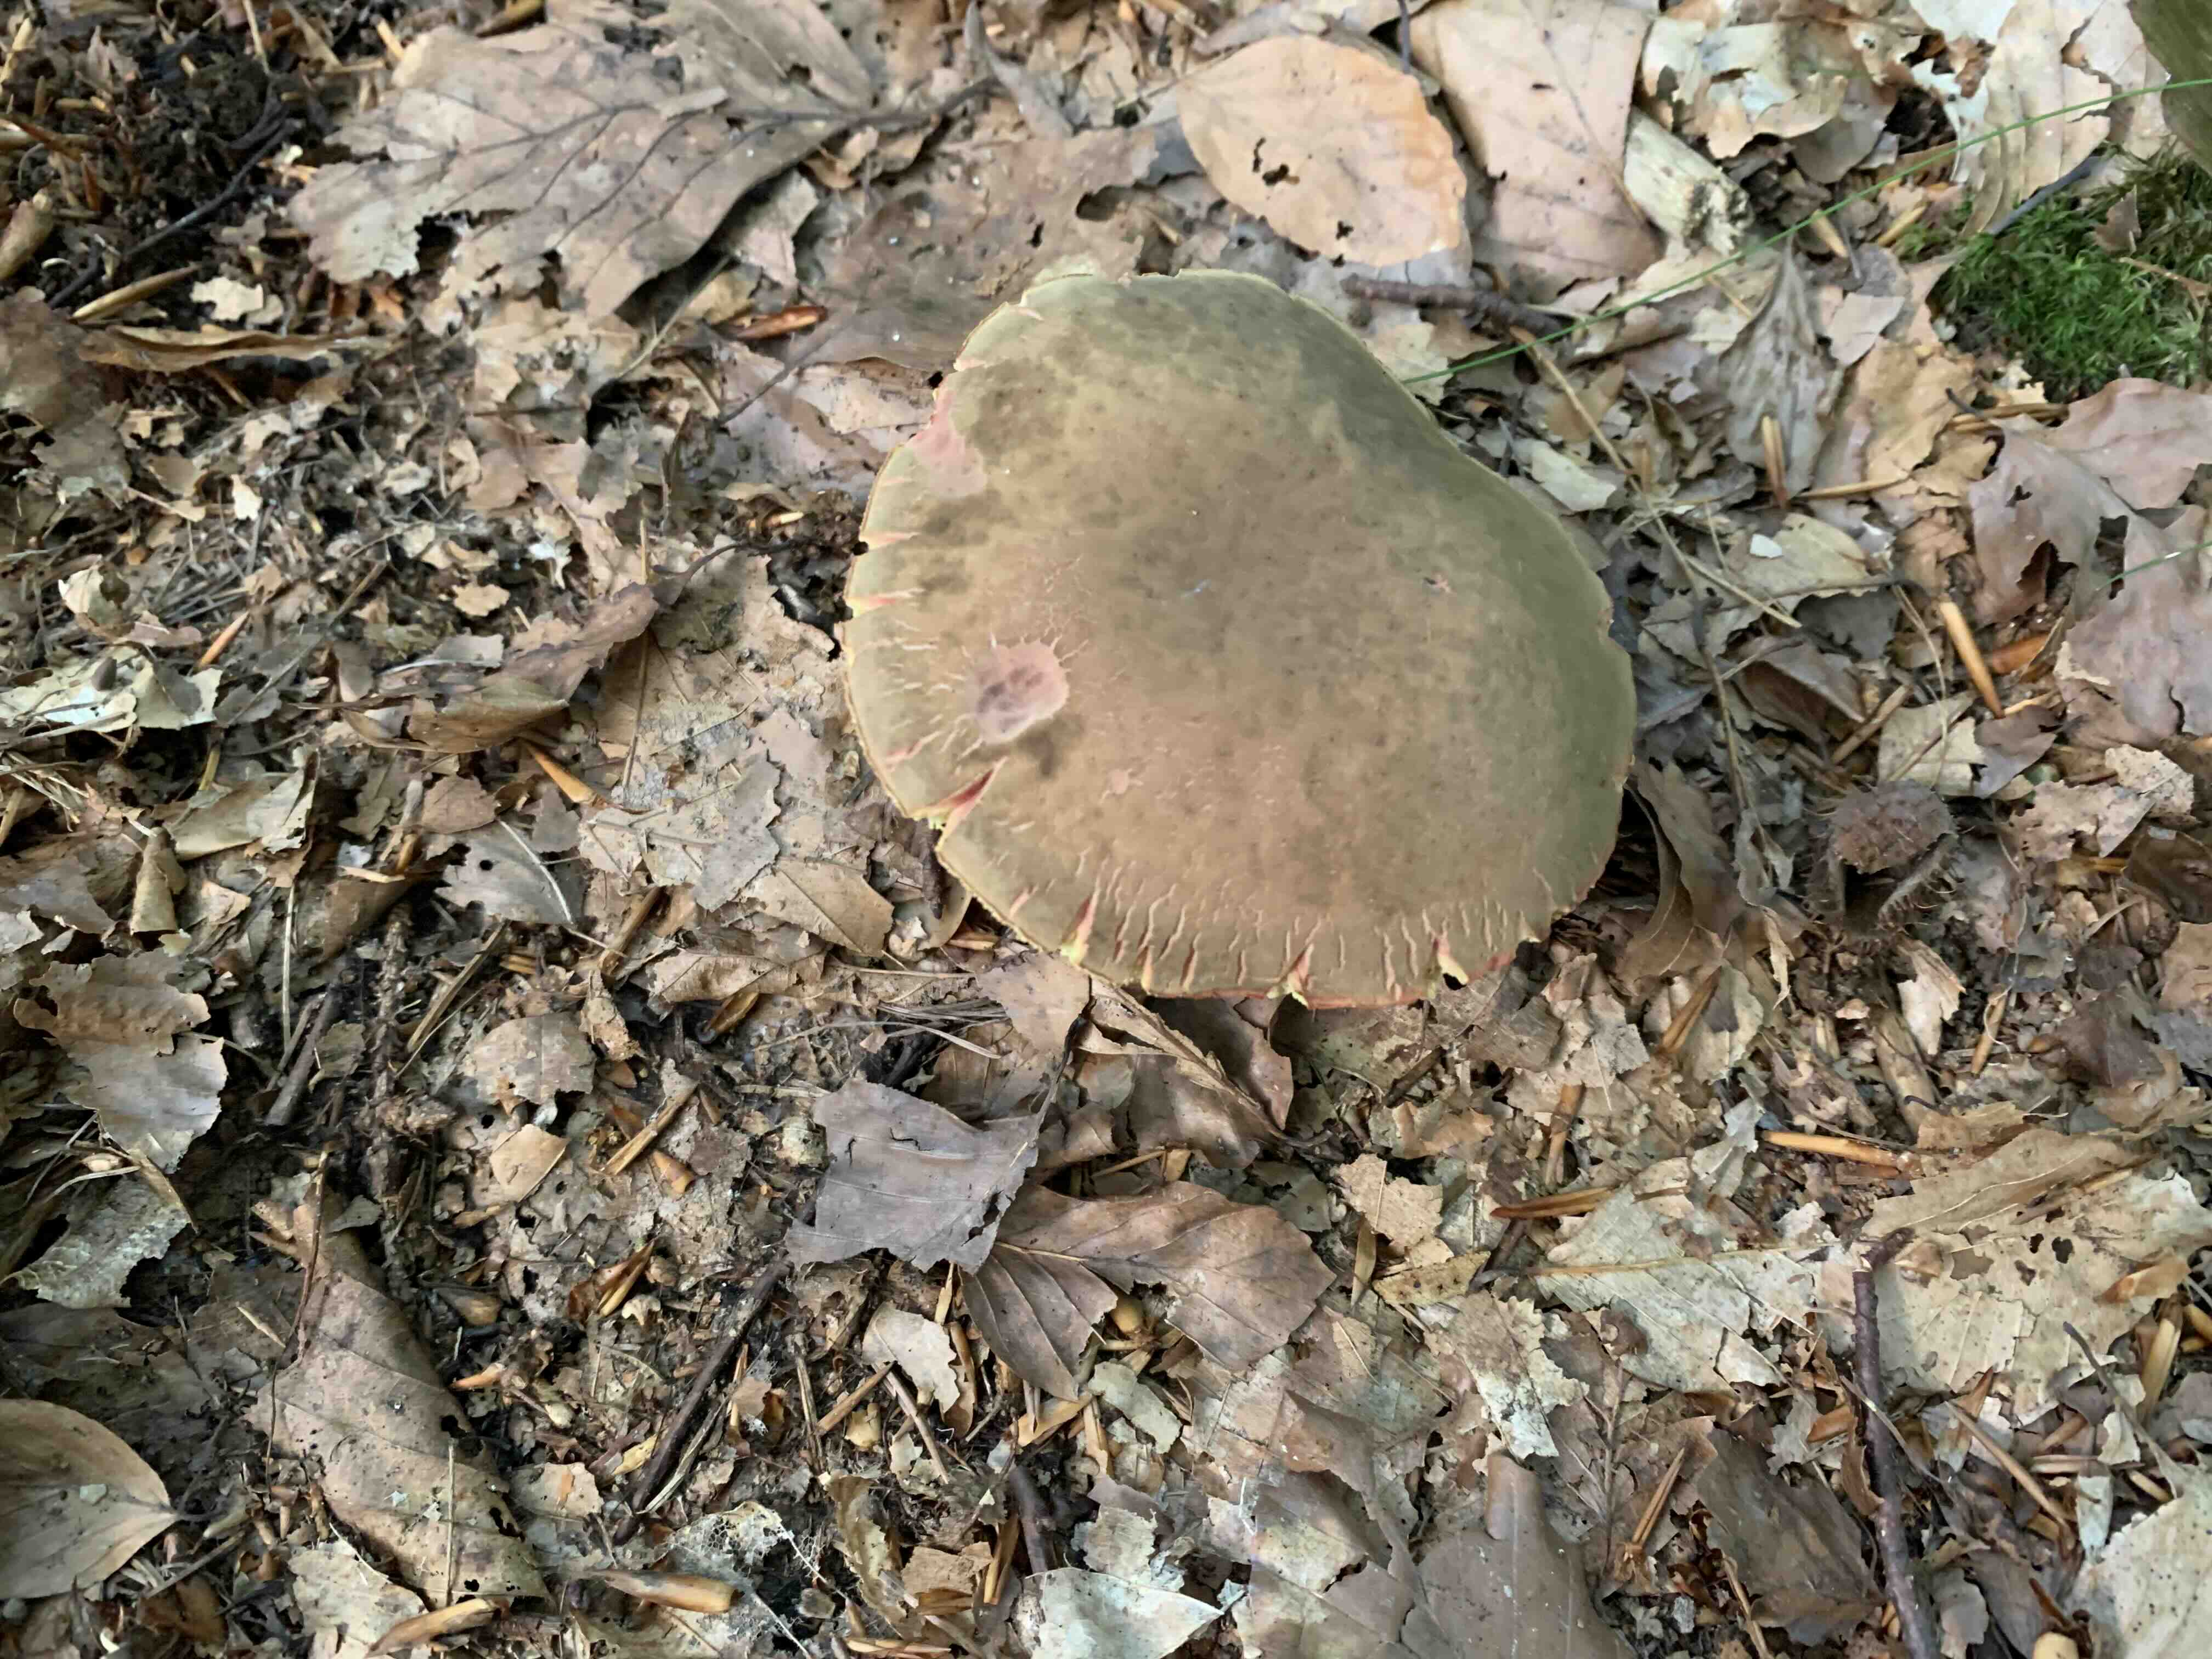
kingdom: Fungi
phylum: Basidiomycota
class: Agaricomycetes
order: Boletales
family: Boletaceae
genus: Xerocomellus
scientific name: Xerocomellus pruinatus
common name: dugget rørhat
